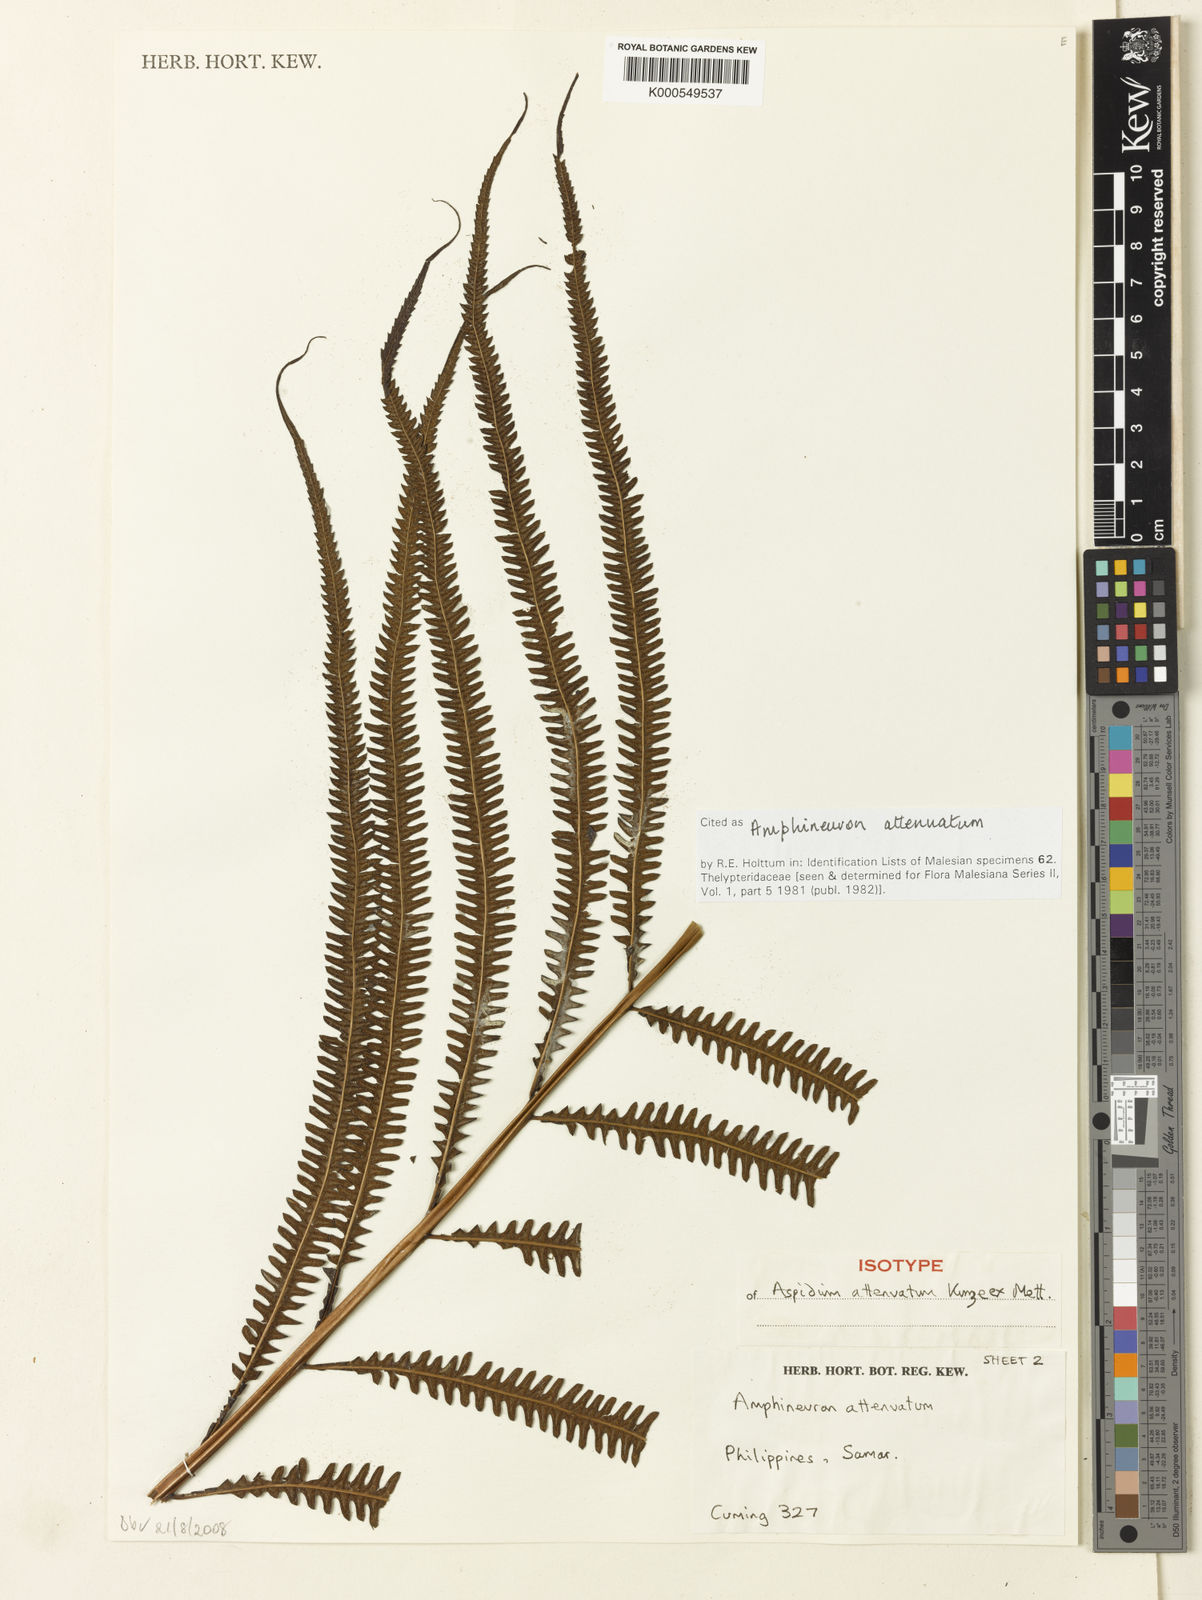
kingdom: Plantae
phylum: Tracheophyta
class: Polypodiopsida
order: Polypodiales
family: Thelypteridaceae
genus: Mesopteris
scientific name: Mesopteris attenuata
